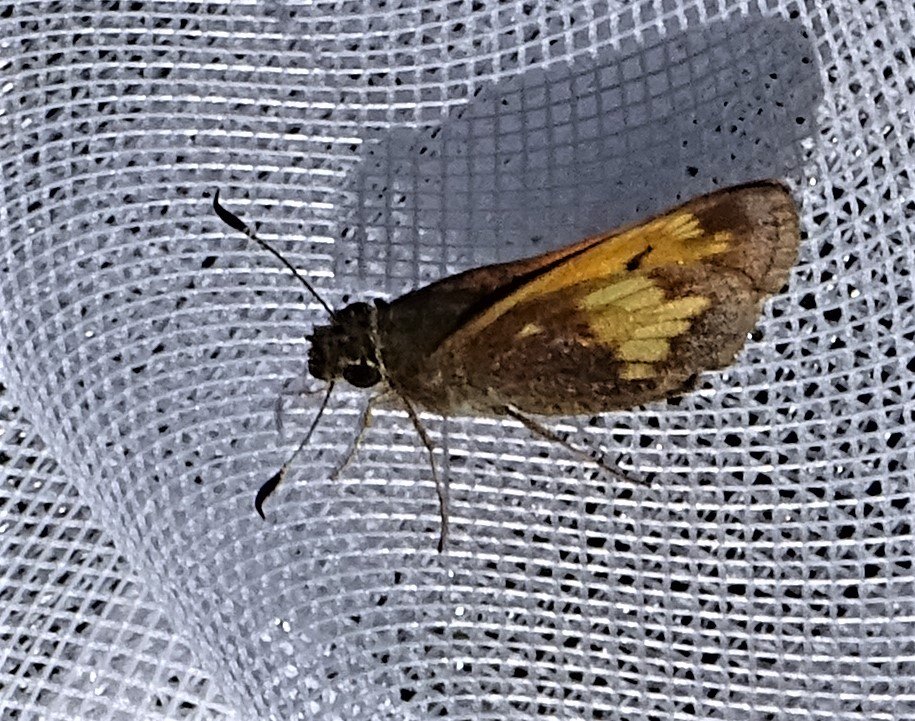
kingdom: Animalia
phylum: Arthropoda
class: Insecta
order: Lepidoptera
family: Hesperiidae
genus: Lon
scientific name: Lon hobomok
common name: Hobomok Skipper
